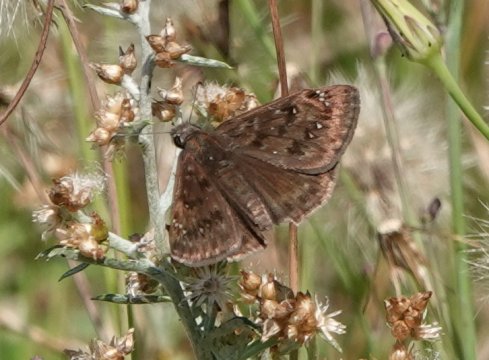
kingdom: Animalia
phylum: Arthropoda
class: Insecta
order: Lepidoptera
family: Hesperiidae
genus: Gesta
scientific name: Gesta
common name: Horace's Duskywing
